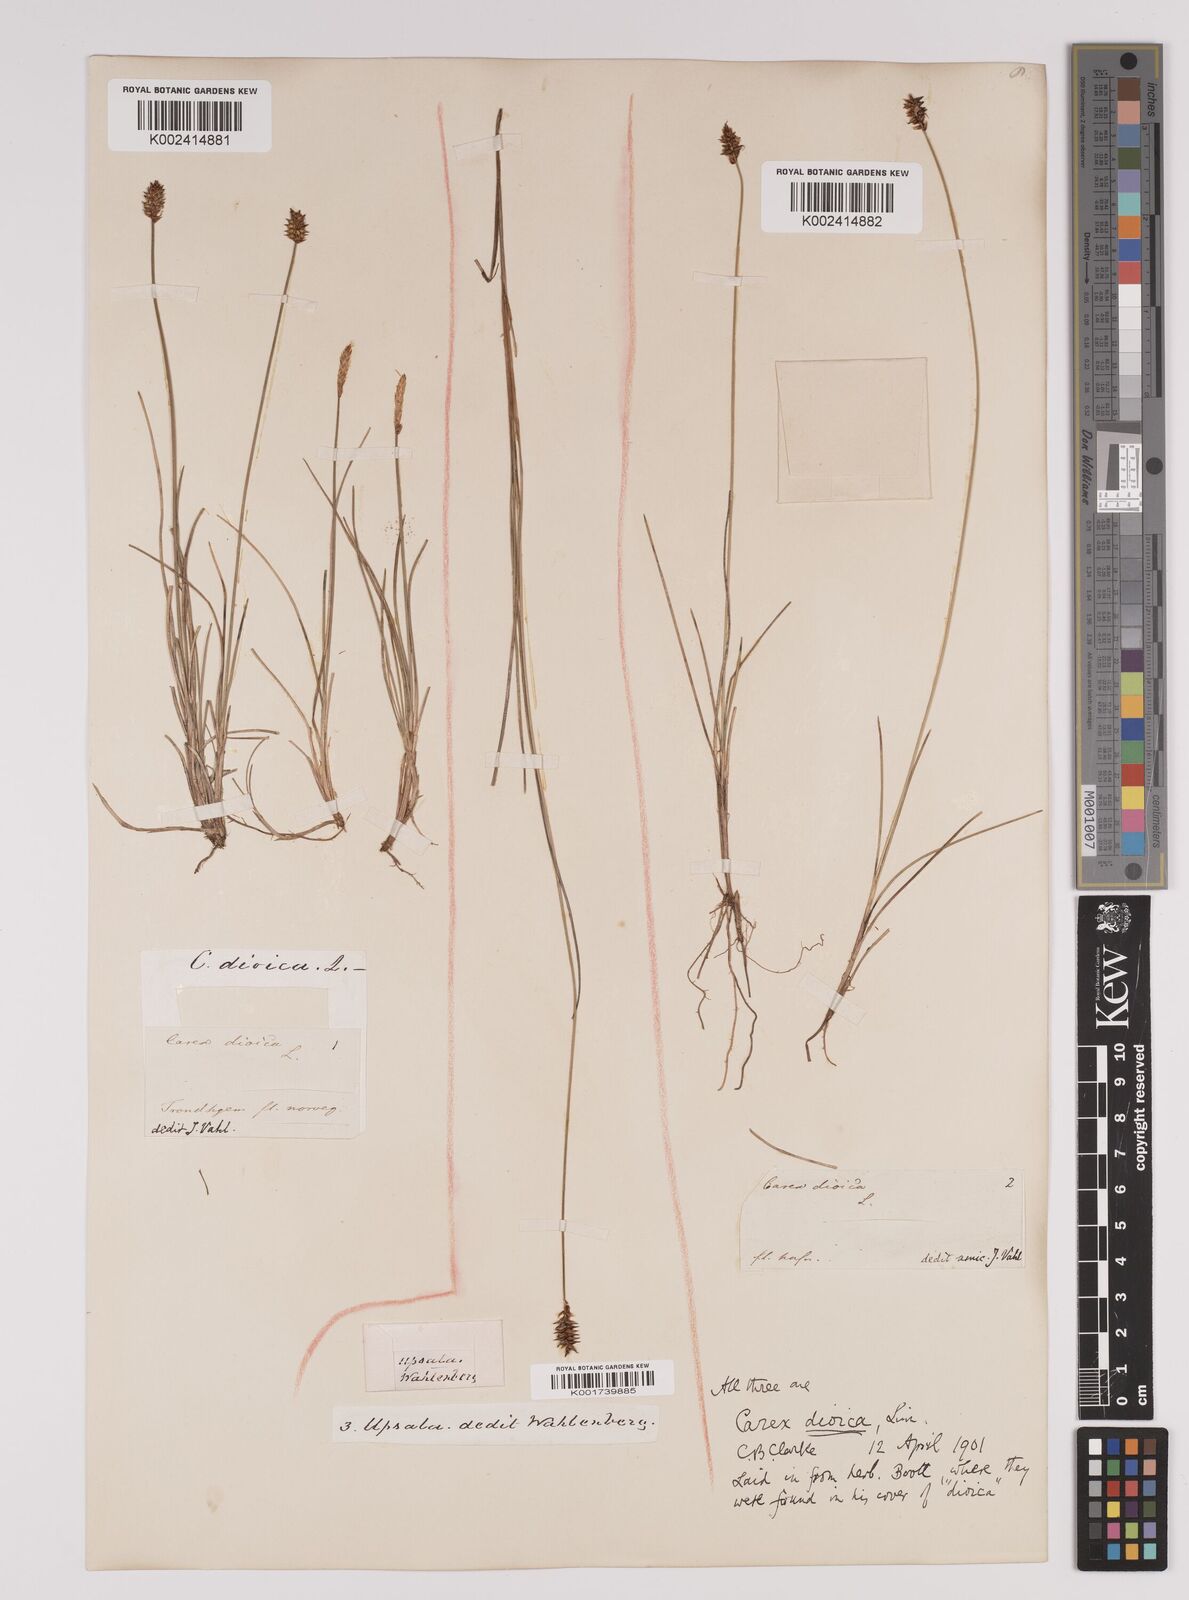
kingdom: Plantae
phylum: Tracheophyta
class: Liliopsida
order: Poales
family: Cyperaceae
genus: Carex
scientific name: Carex dioica
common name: Dioecious sedge
